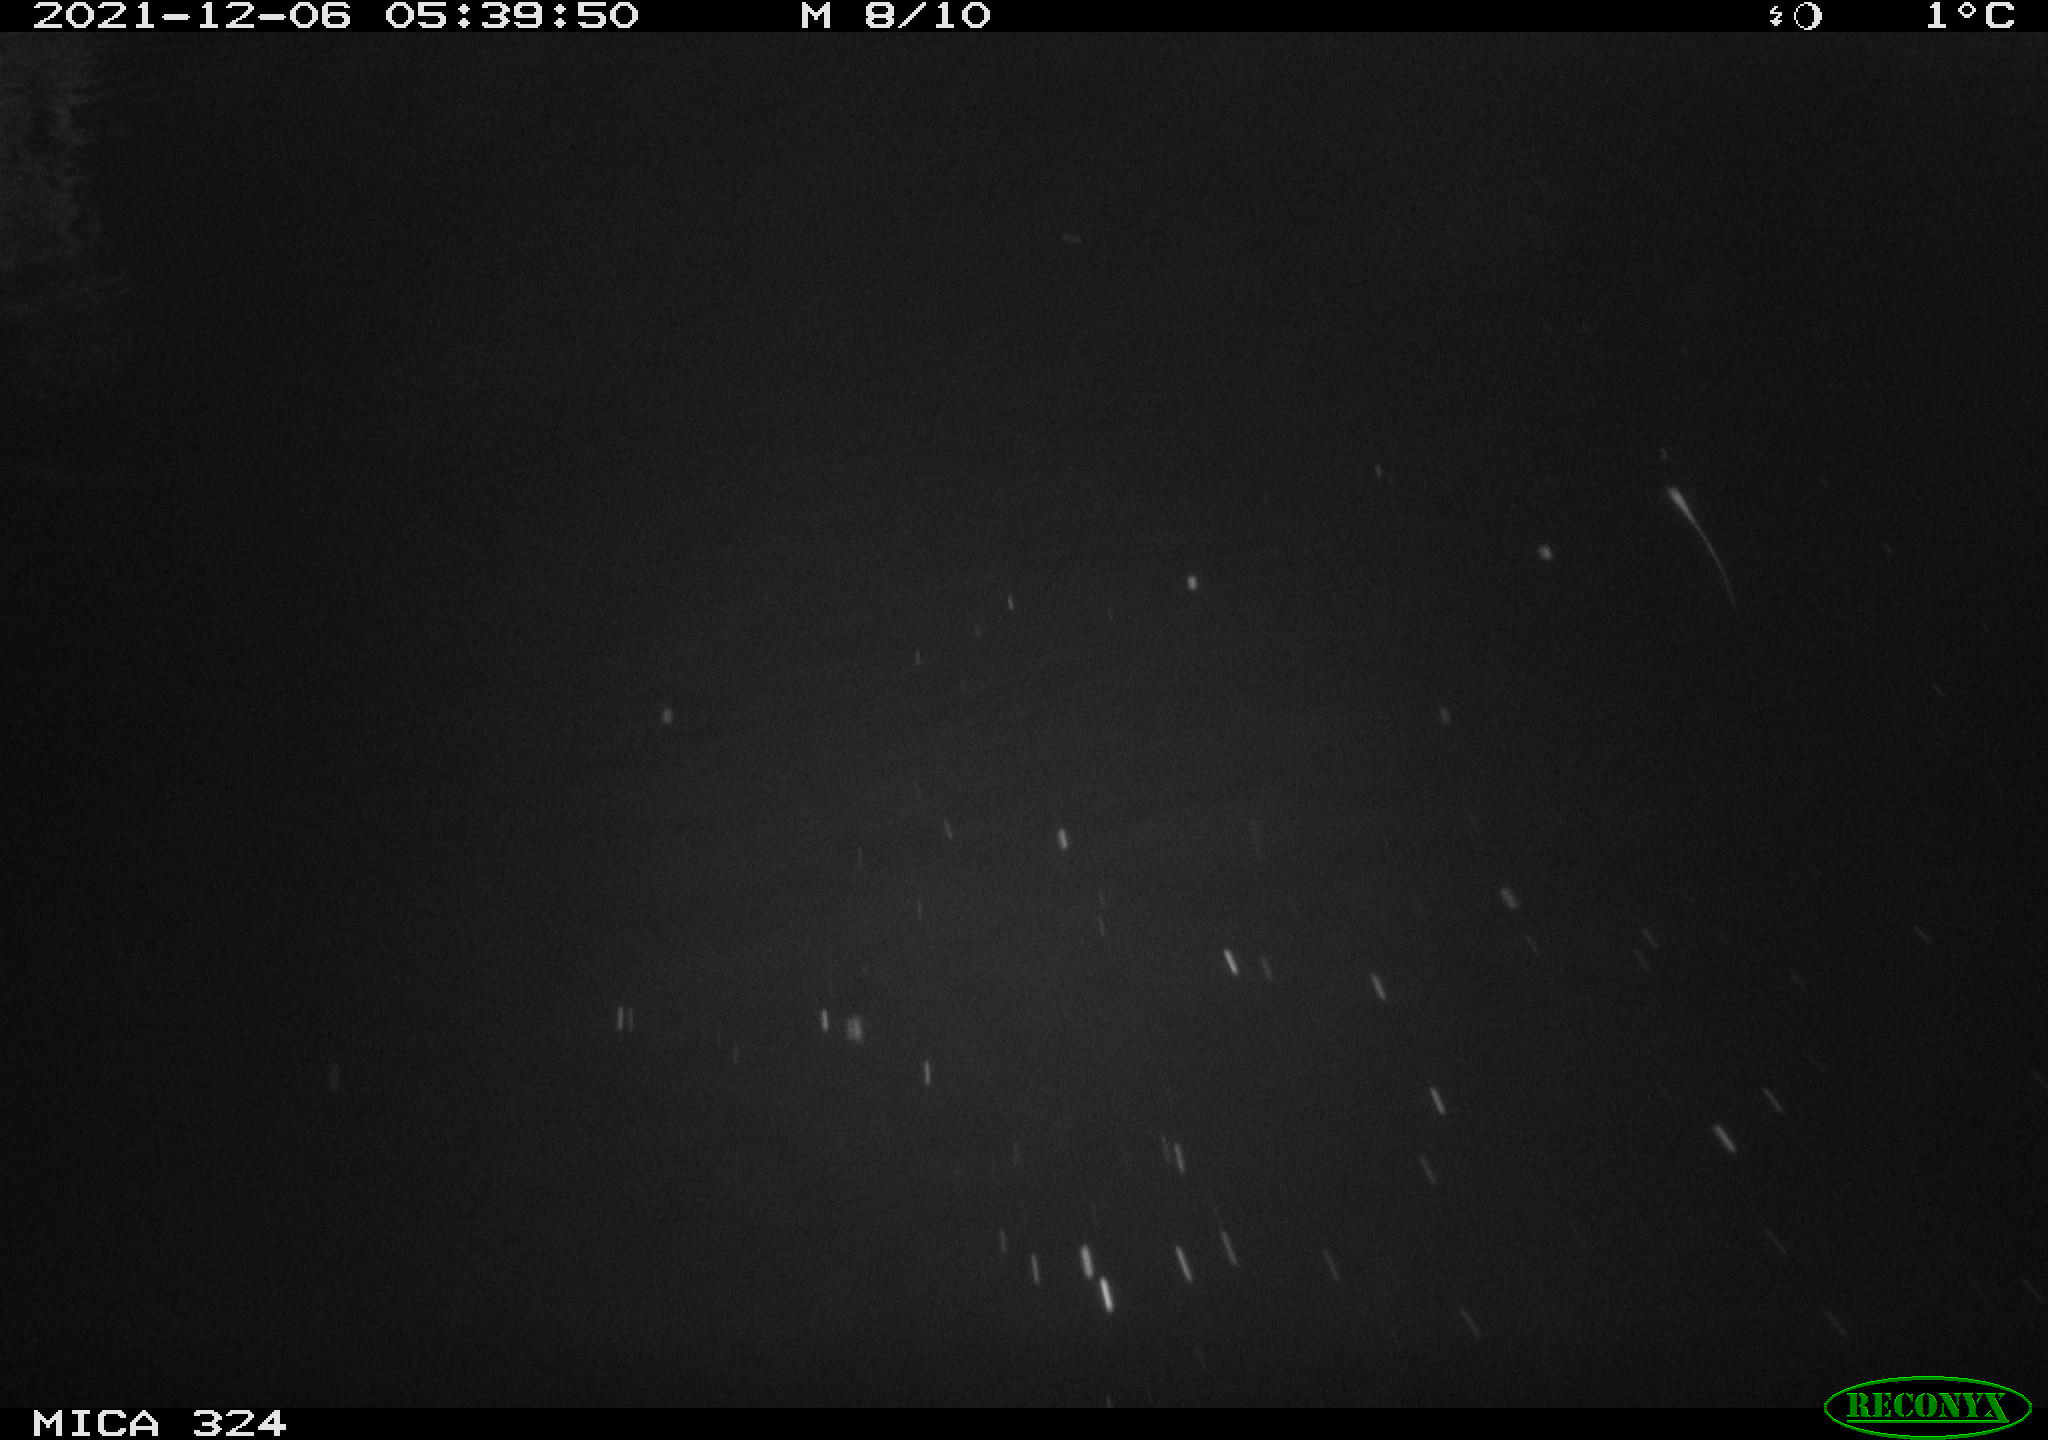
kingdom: Animalia
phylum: Chordata
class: Mammalia
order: Rodentia
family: Cricetidae
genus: Ondatra
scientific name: Ondatra zibethicus
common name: Muskrat
